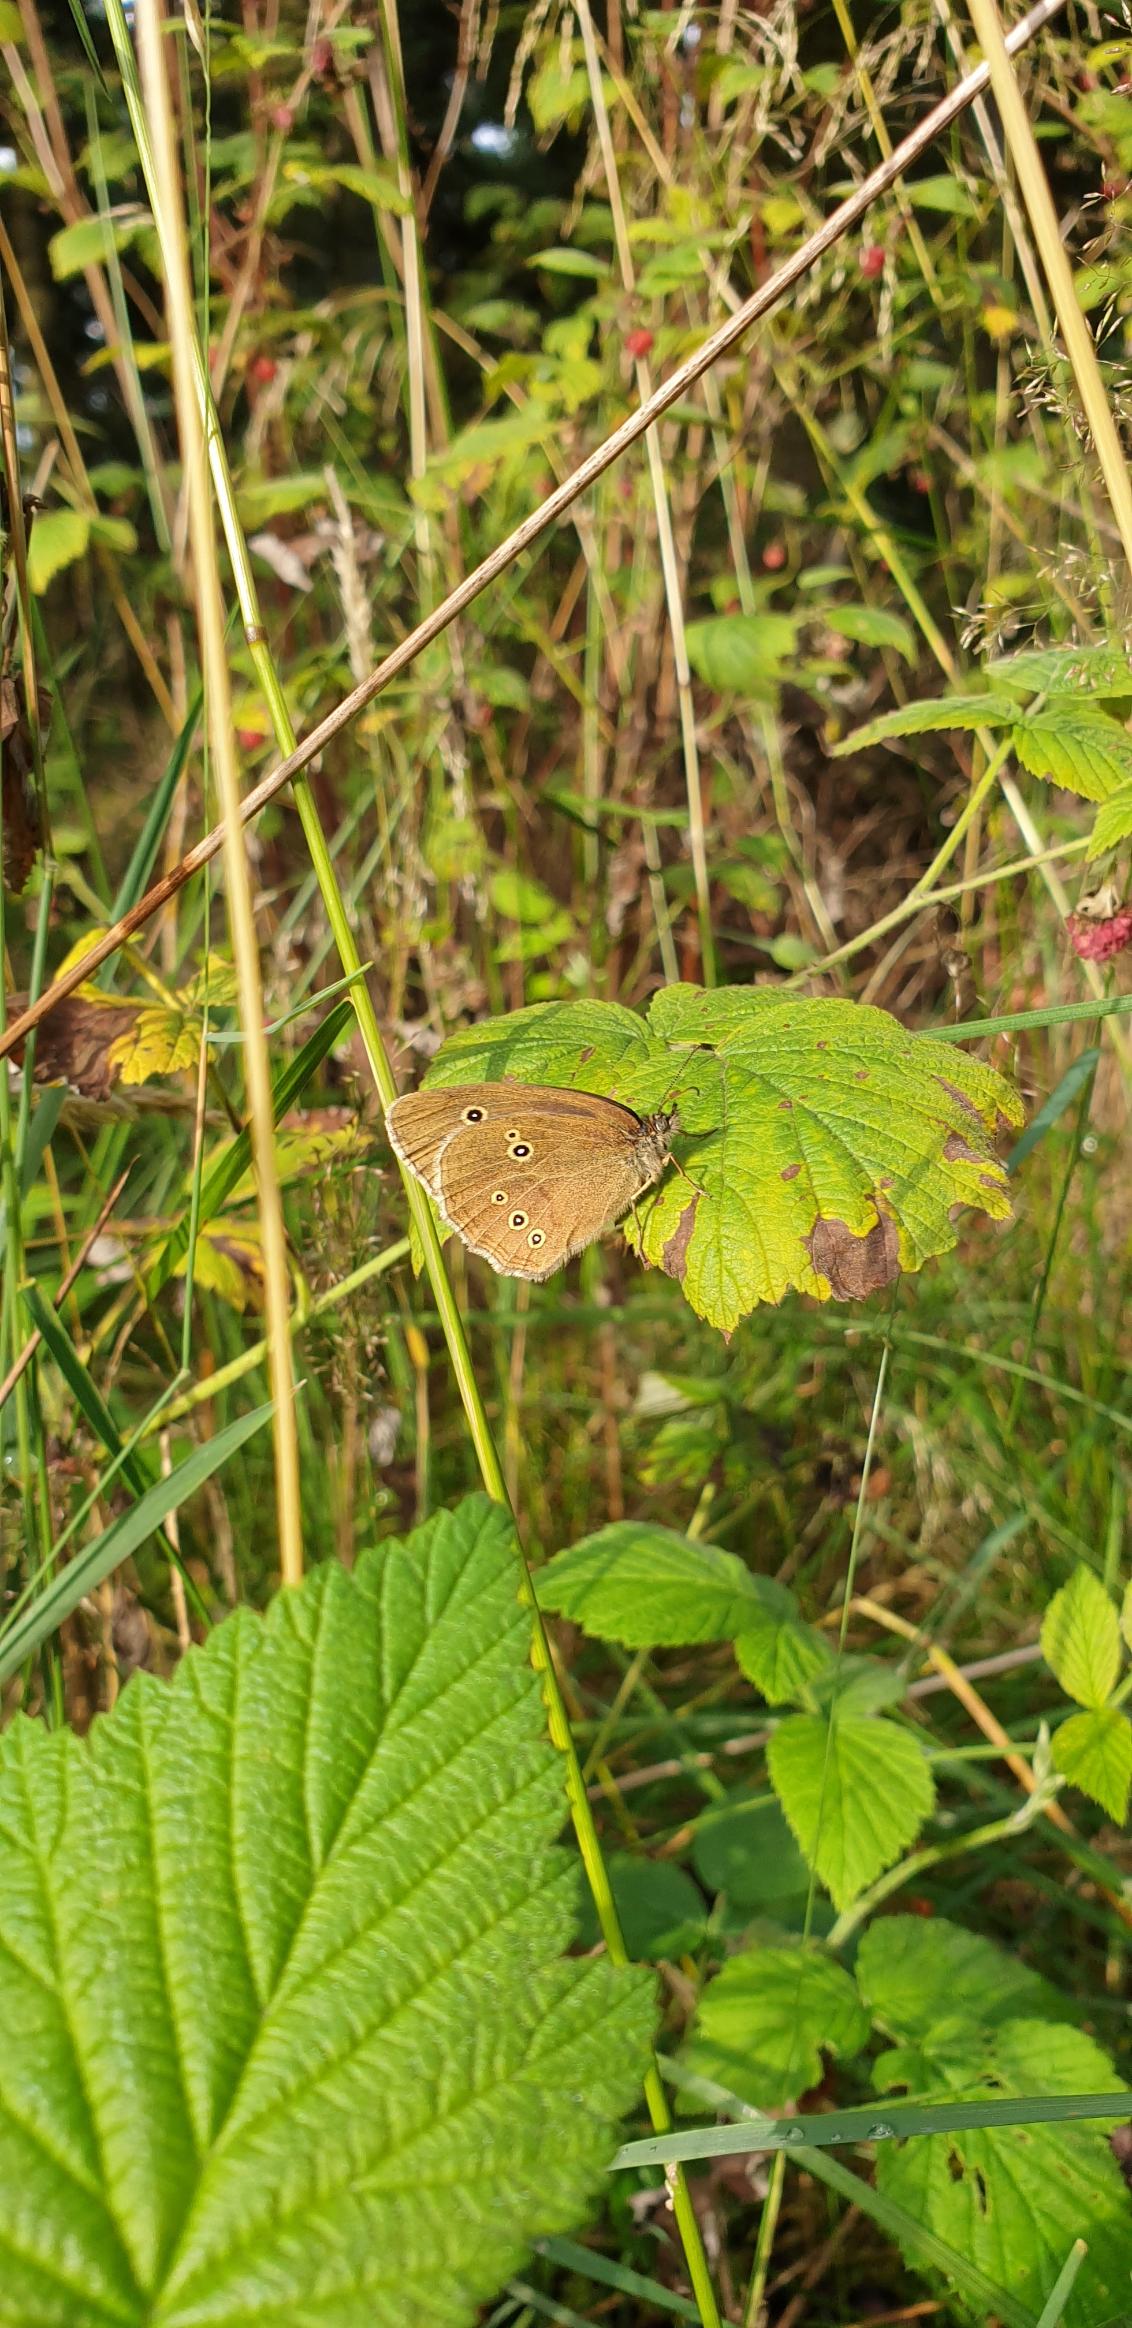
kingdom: Animalia
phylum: Arthropoda
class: Insecta
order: Lepidoptera
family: Nymphalidae
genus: Aphantopus
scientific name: Aphantopus hyperantus
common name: Engrandøje
